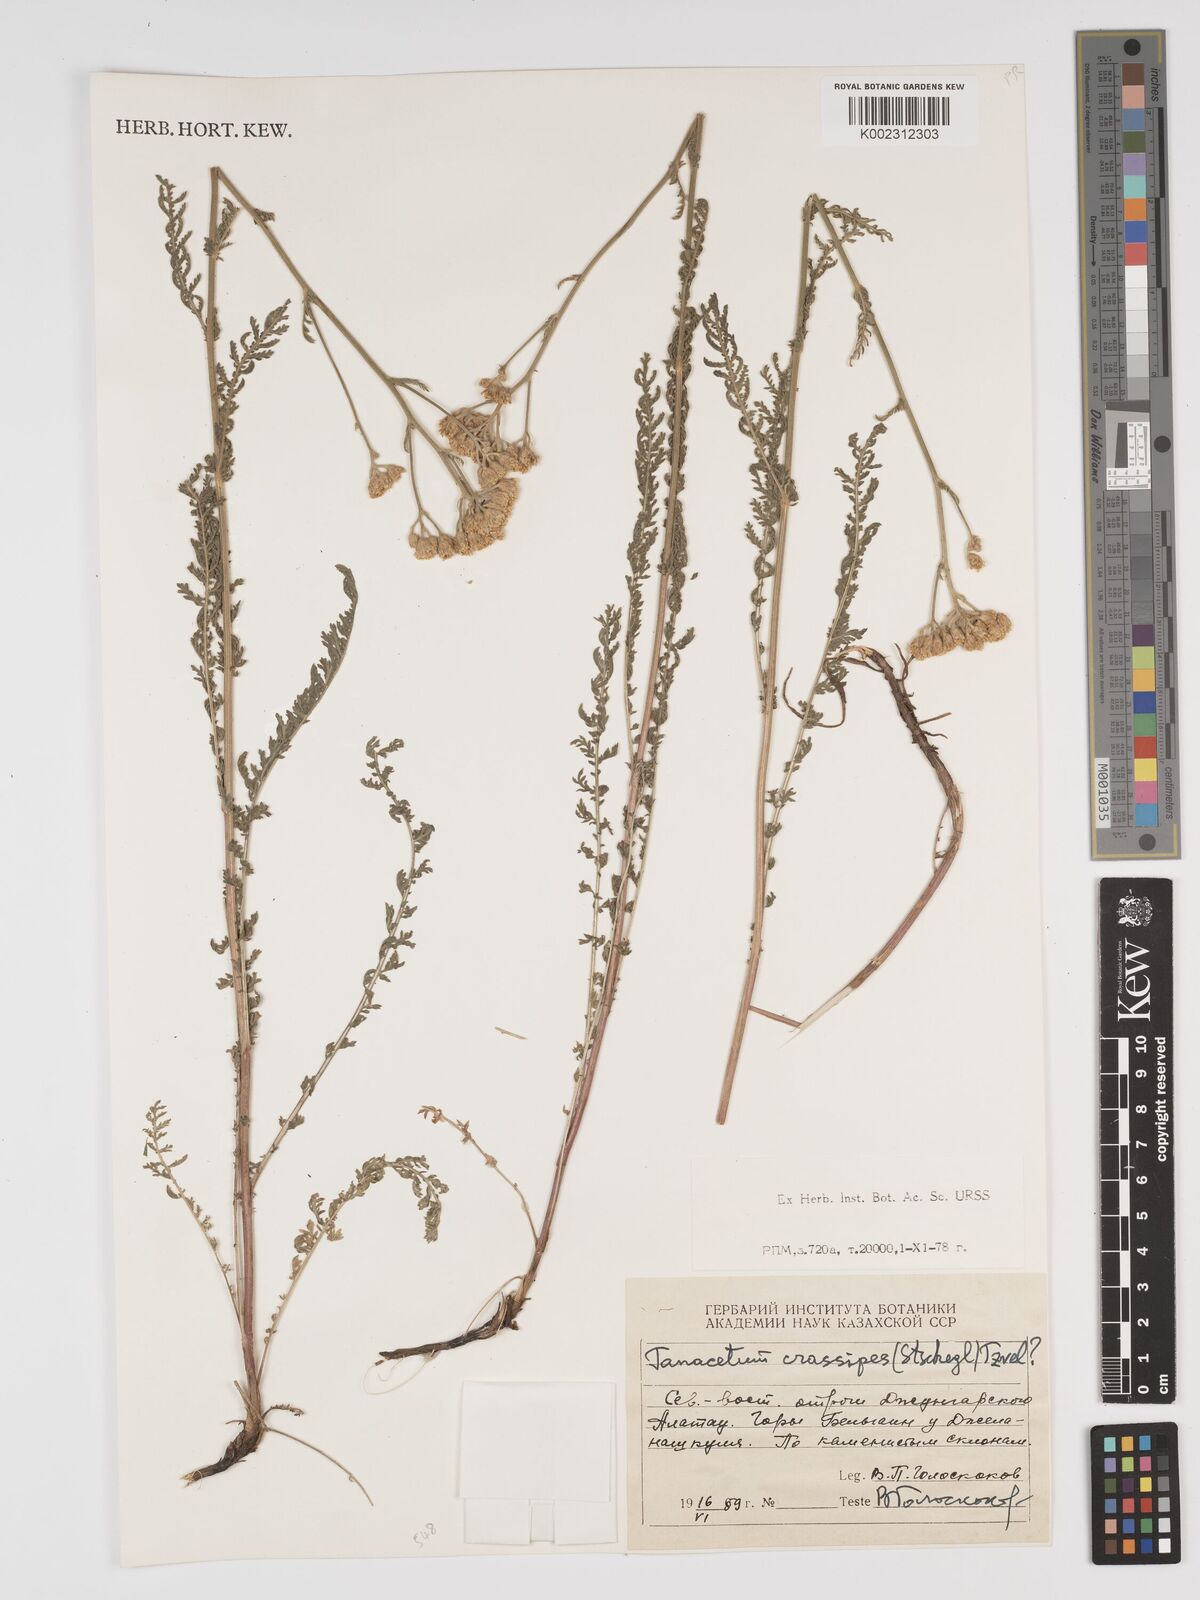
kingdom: Plantae
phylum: Tracheophyta
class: Magnoliopsida
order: Asterales
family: Asteraceae
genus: Tanacetum
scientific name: Tanacetum crassipes
